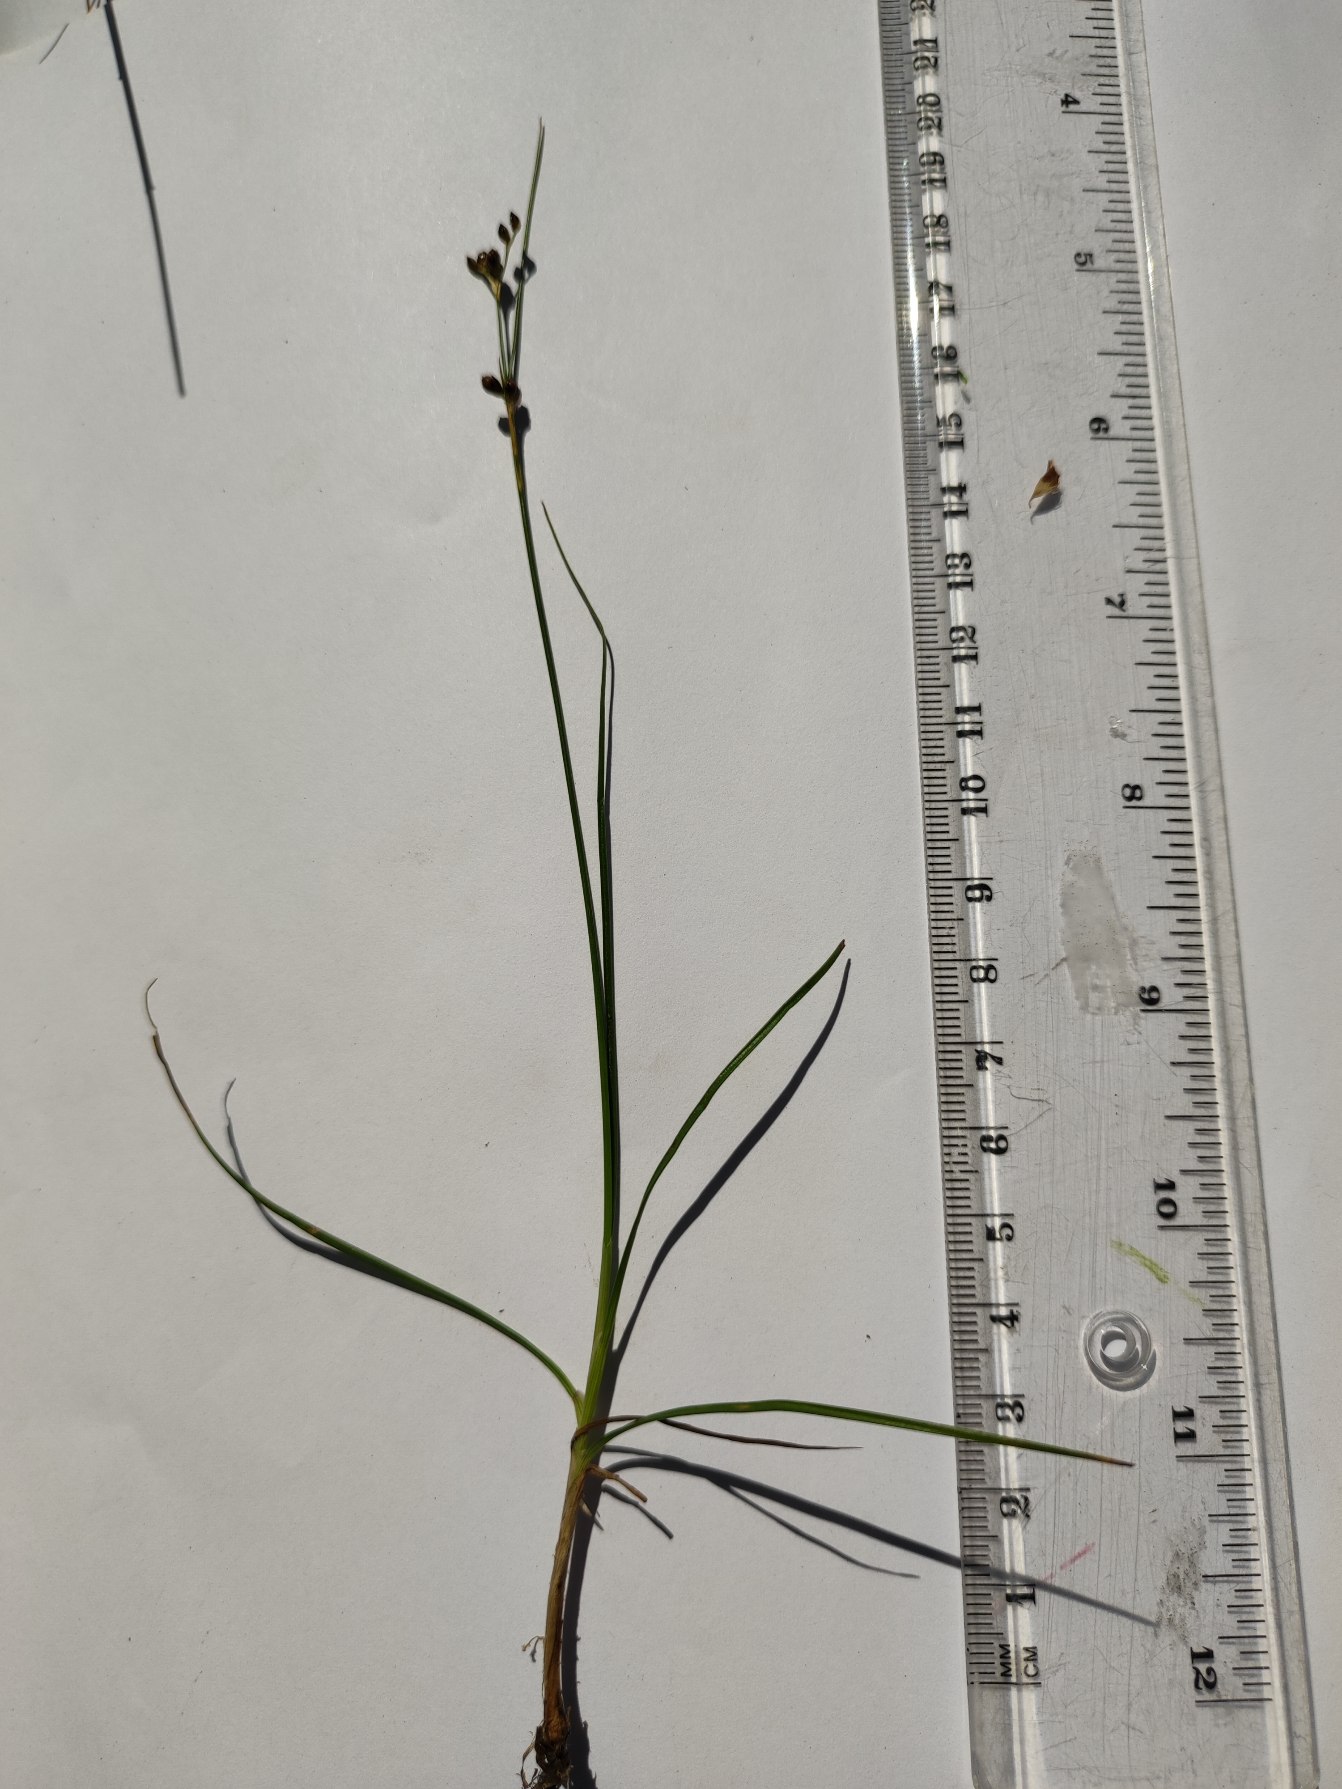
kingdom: Plantae
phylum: Tracheophyta
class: Liliopsida
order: Poales
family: Juncaceae
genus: Juncus
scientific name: Juncus gerardi
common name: Harril
